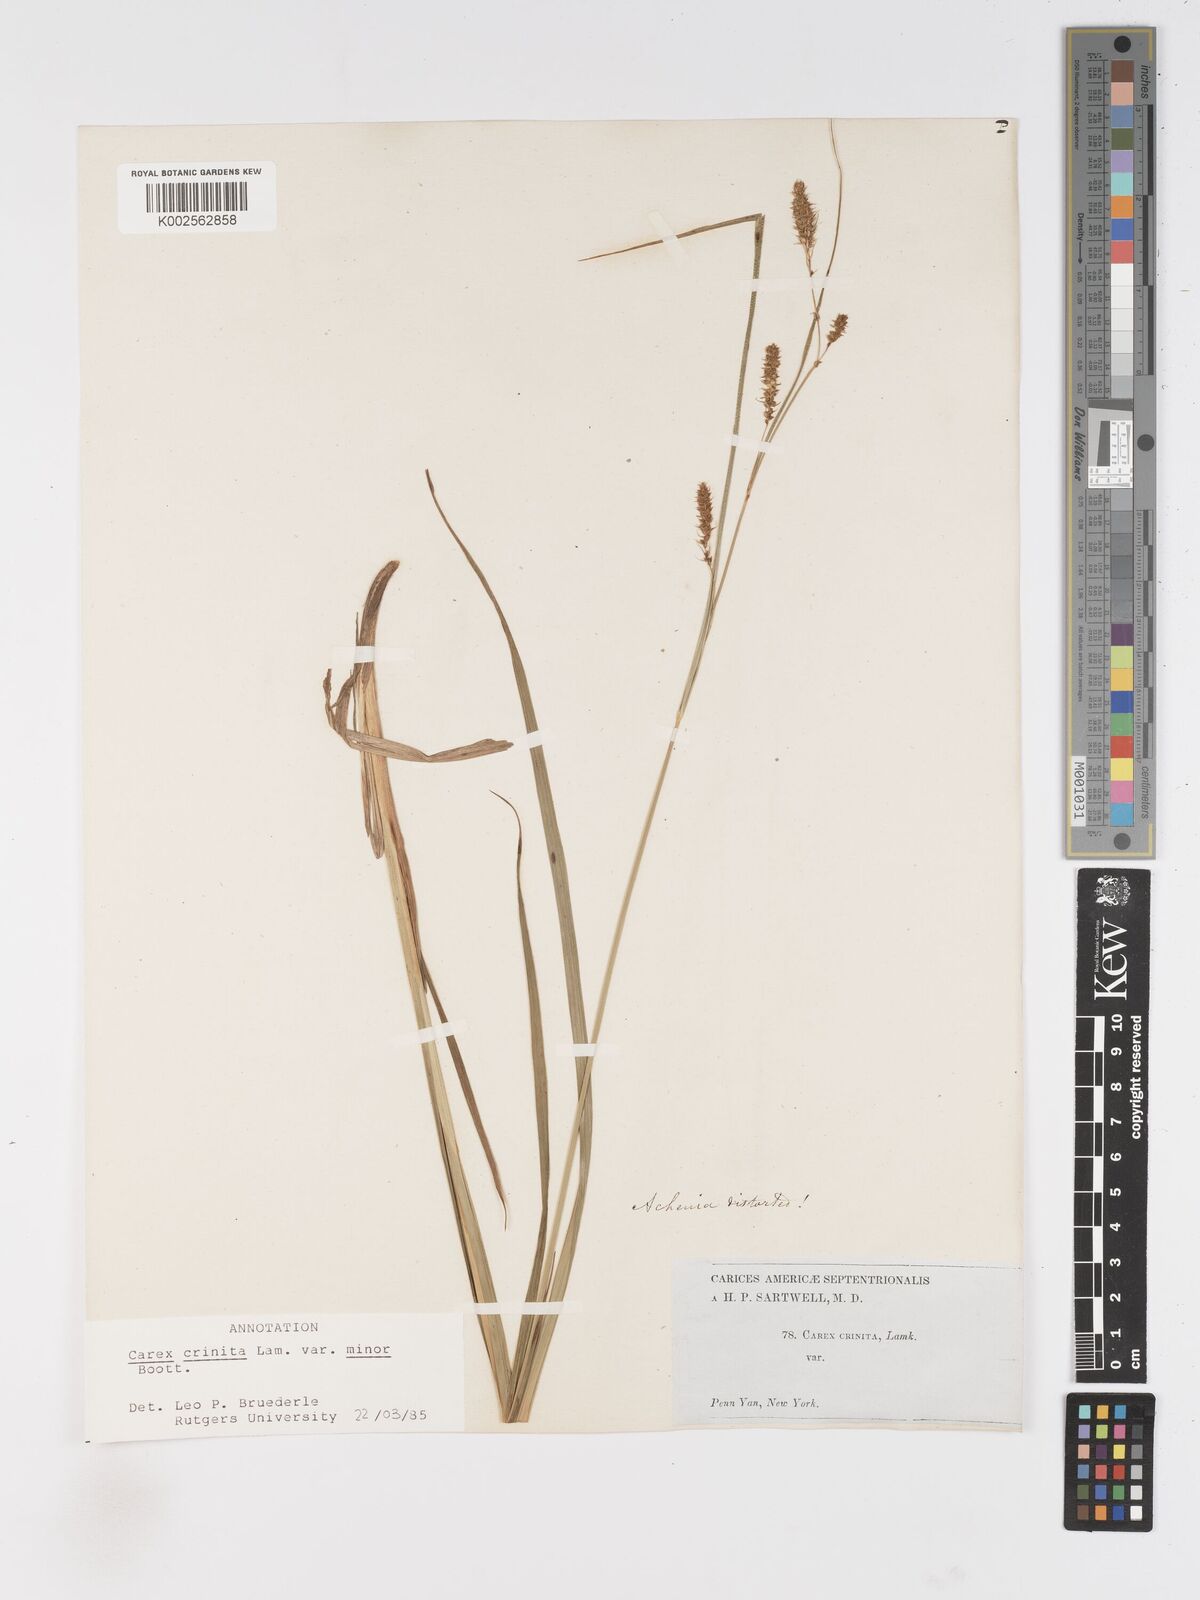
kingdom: Plantae
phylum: Tracheophyta
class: Liliopsida
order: Poales
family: Cyperaceae
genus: Carex
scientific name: Carex crinita
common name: Fringed sedge
